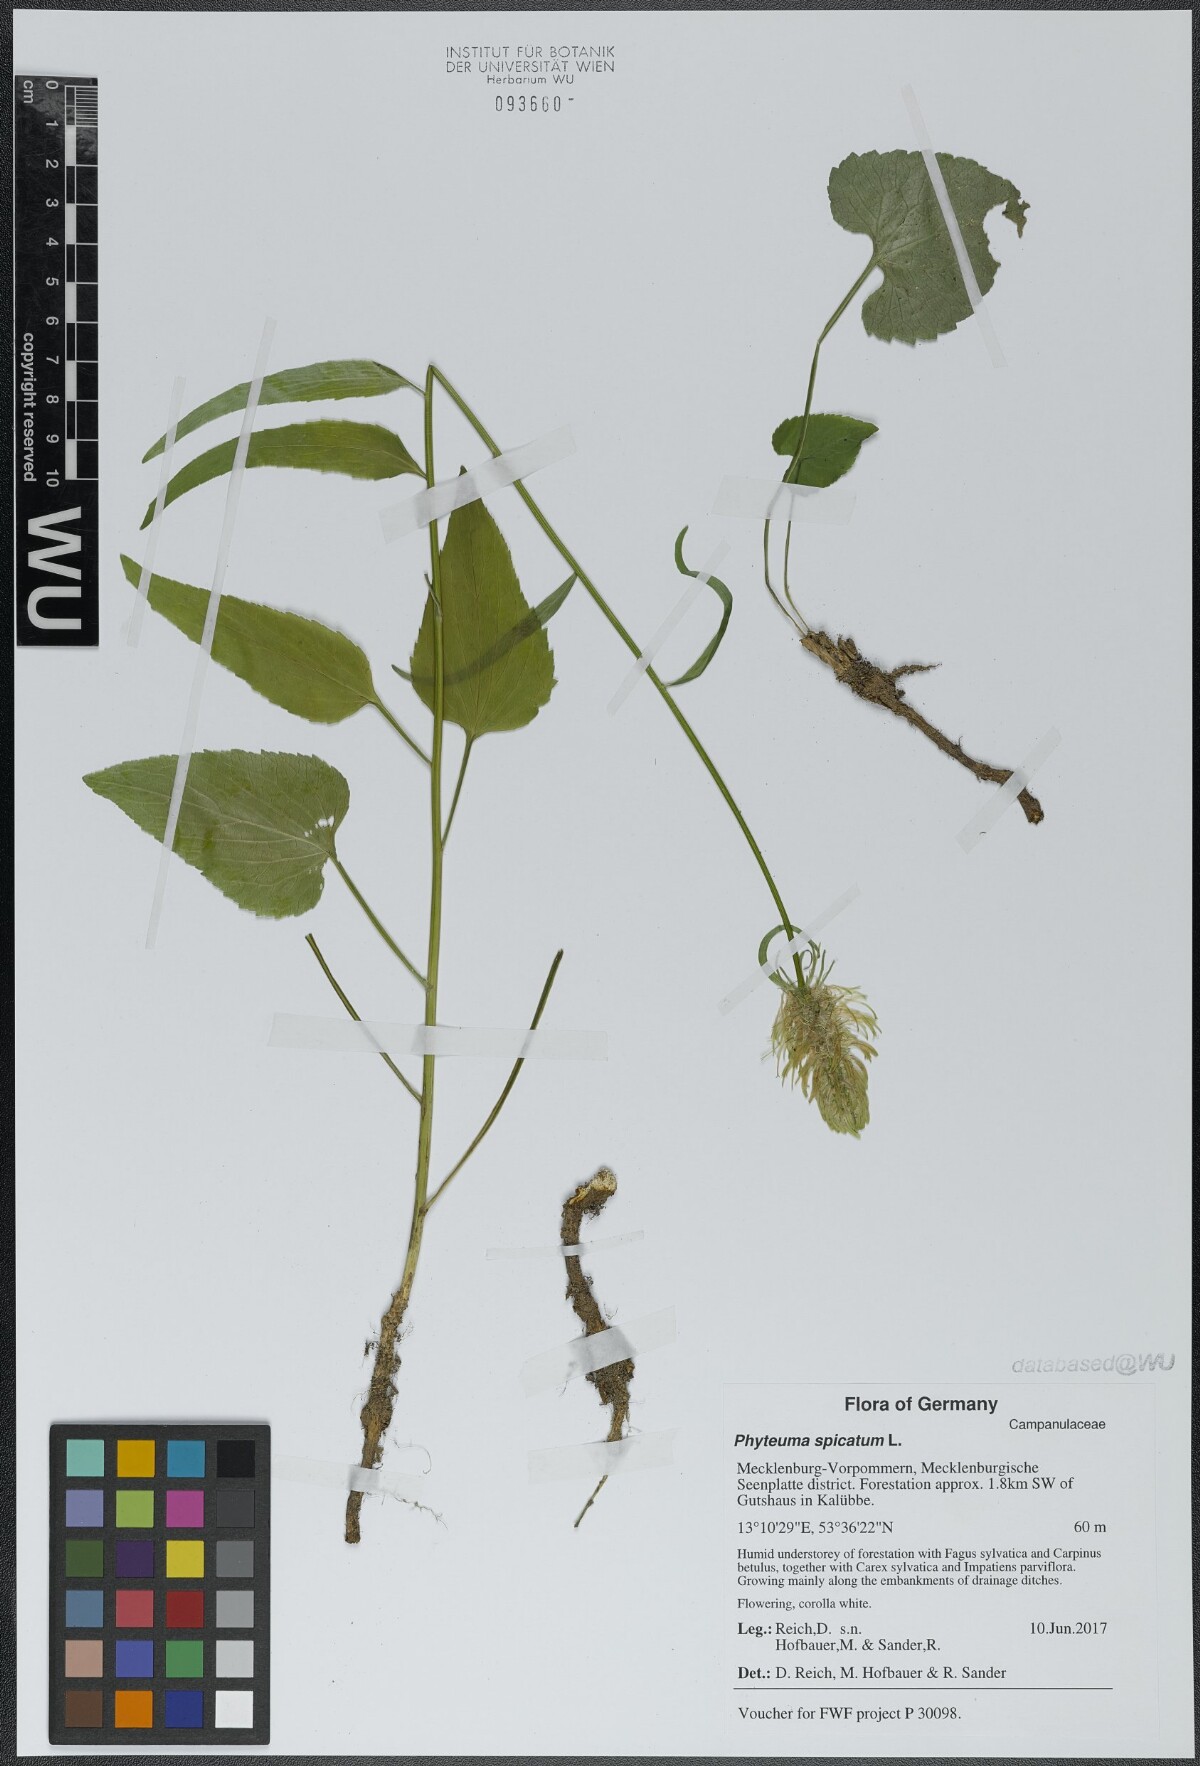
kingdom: Plantae
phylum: Tracheophyta
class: Magnoliopsida
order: Asterales
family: Campanulaceae
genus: Phyteuma
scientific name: Phyteuma spicatum
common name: Spiked rampion
